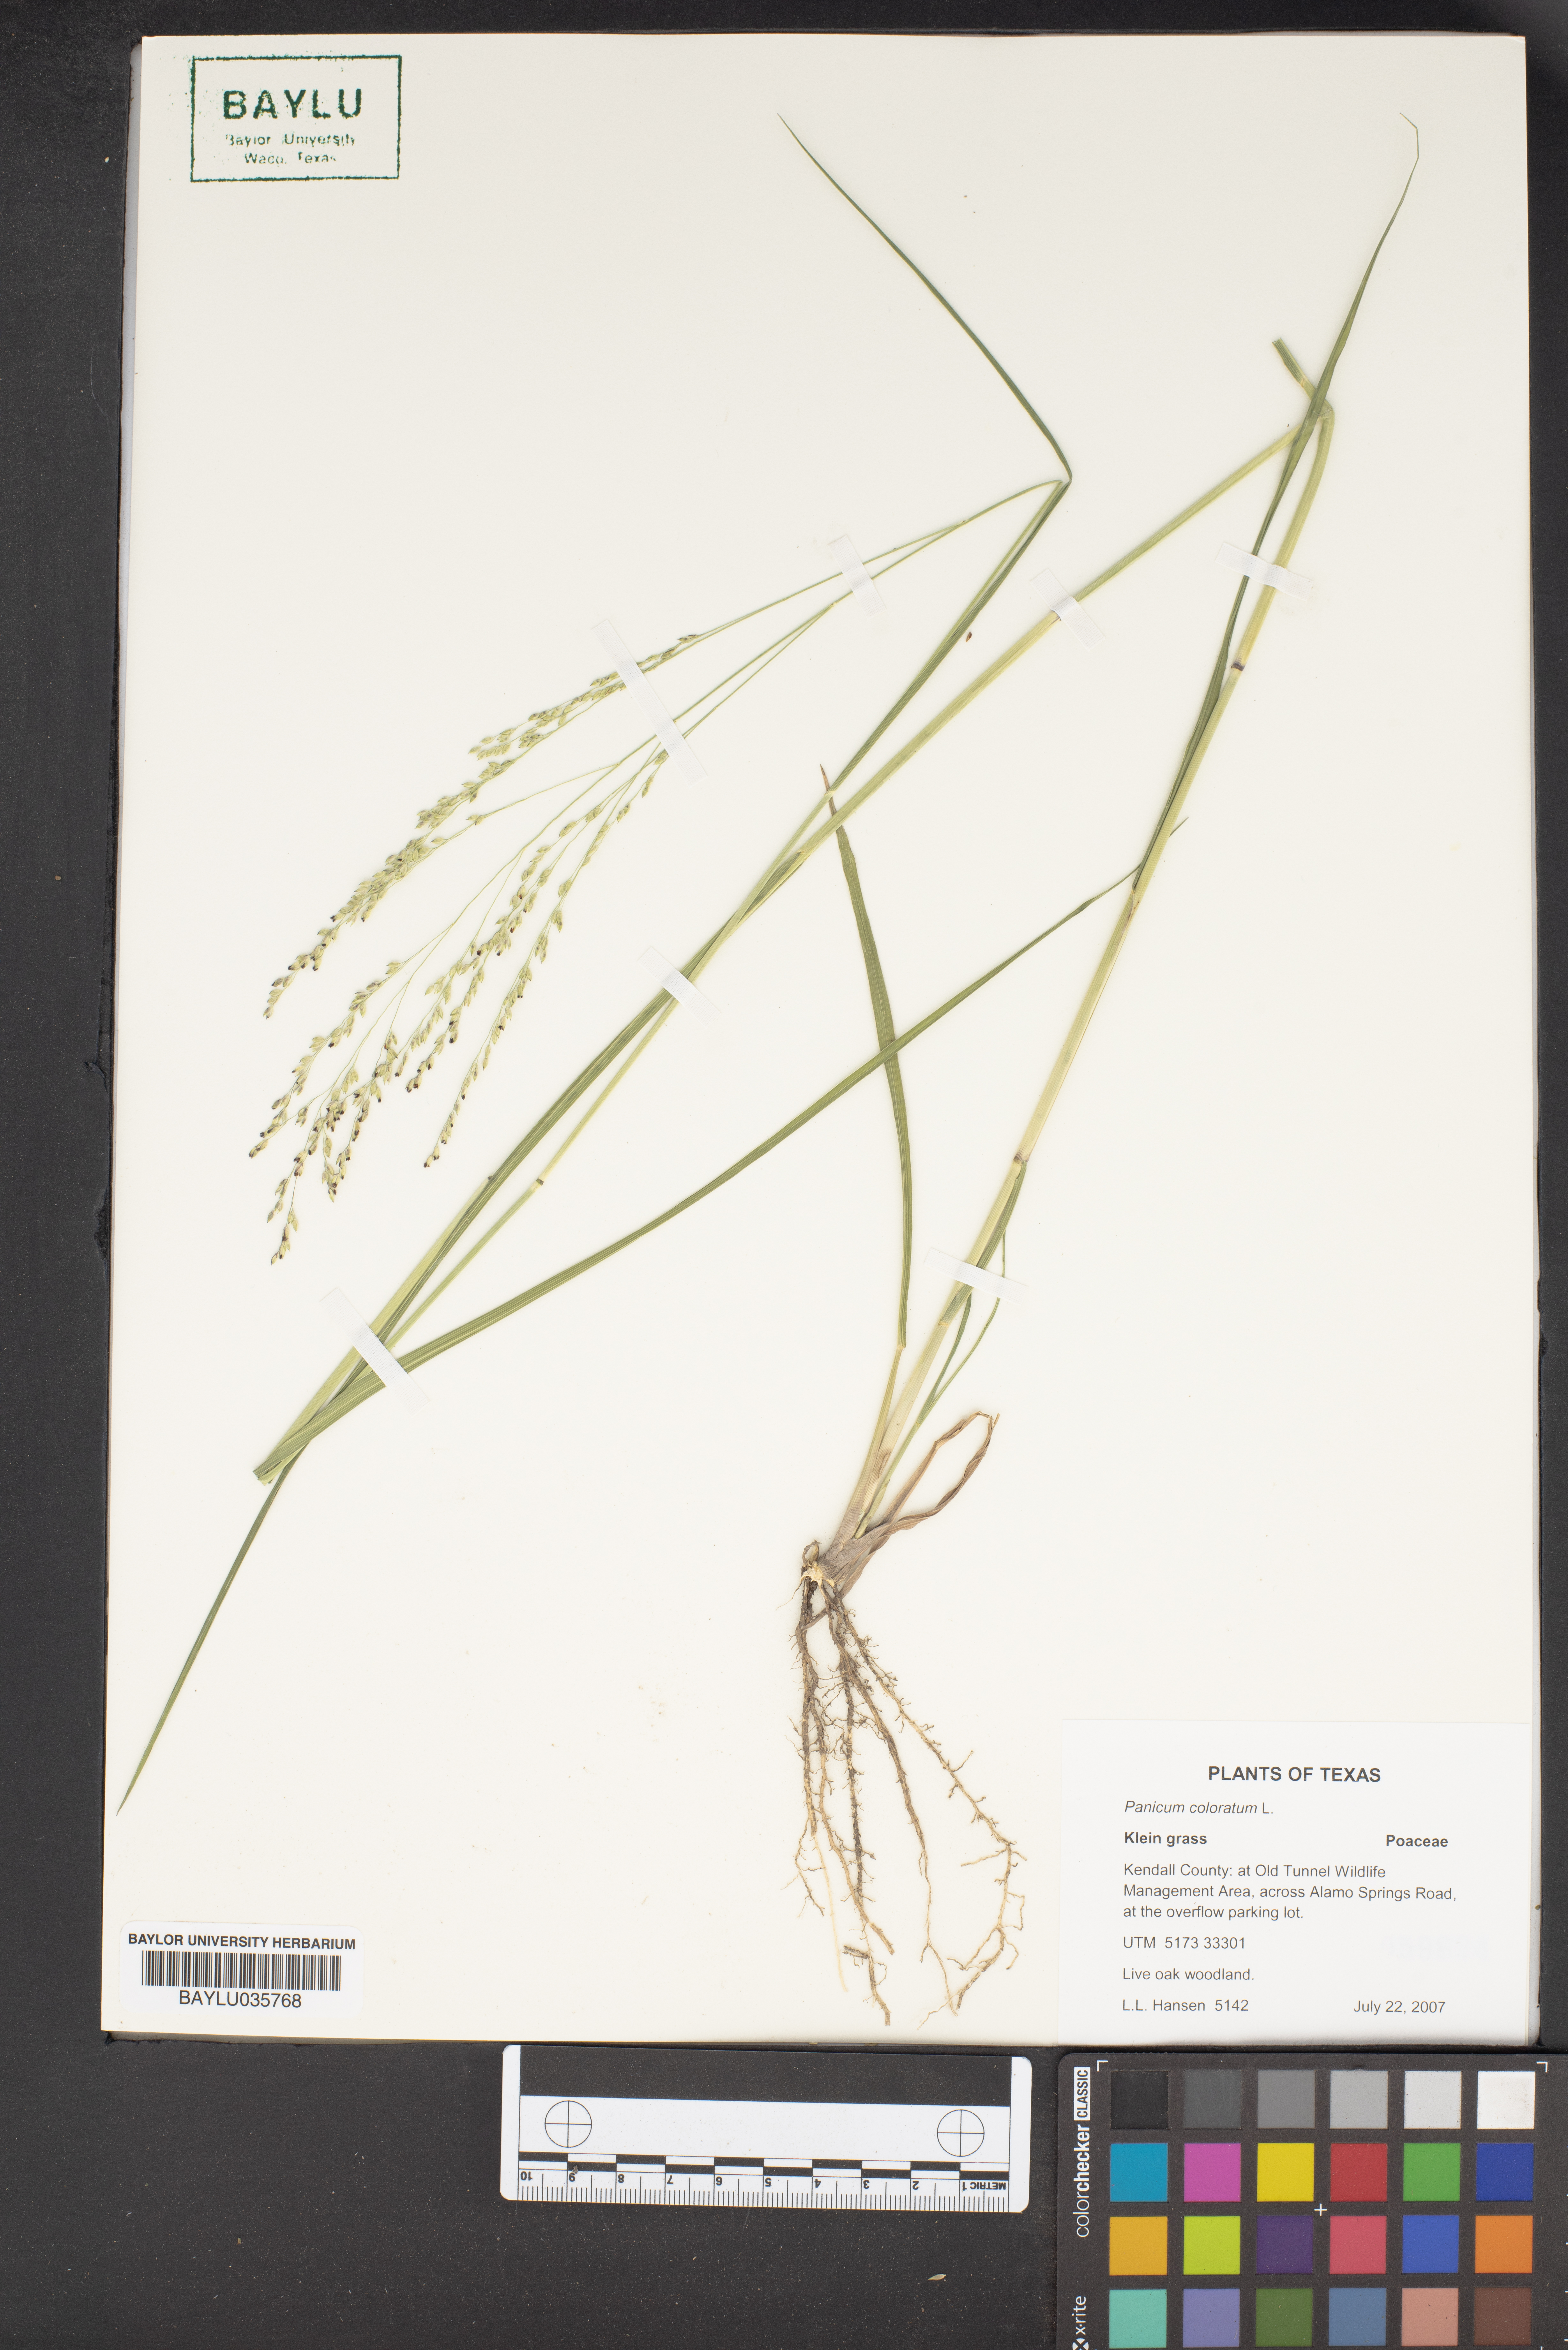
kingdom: Plantae
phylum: Tracheophyta
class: Liliopsida
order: Poales
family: Poaceae
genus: Panicum
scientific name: Panicum coloratum
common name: Kleingrass
